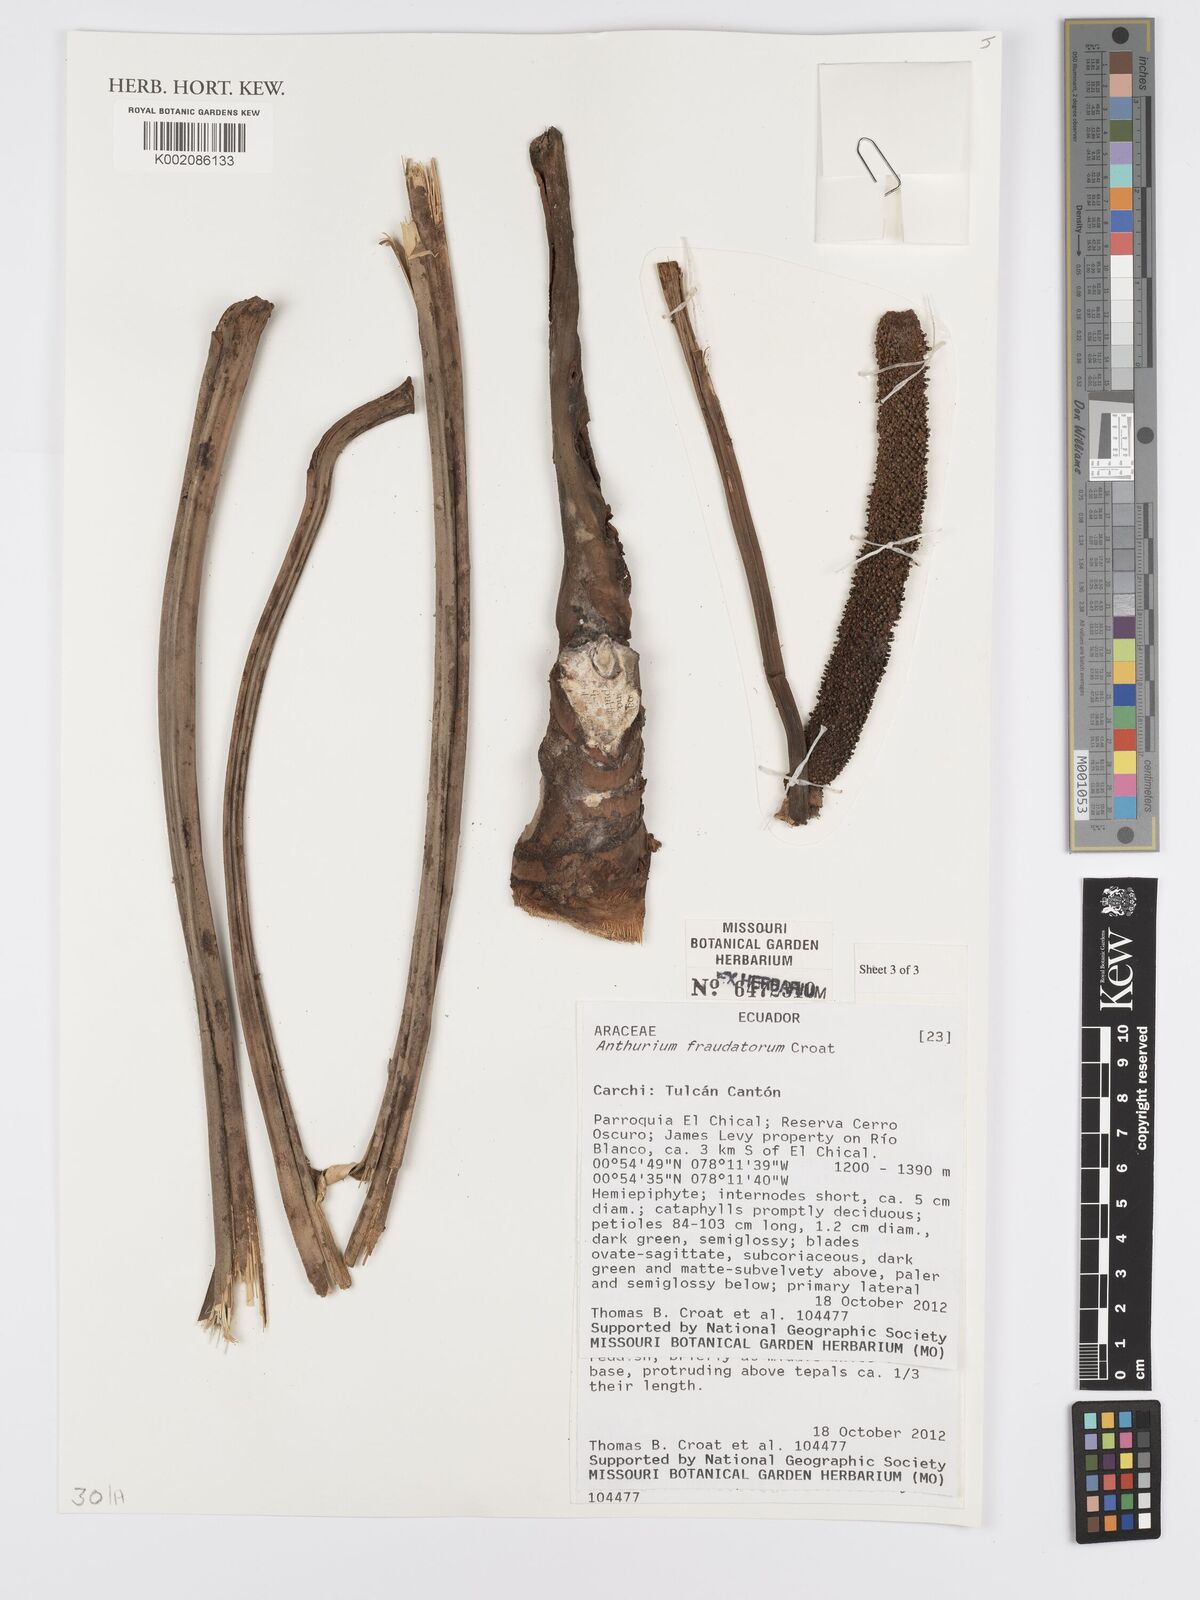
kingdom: Plantae
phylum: Tracheophyta
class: Liliopsida
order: Alismatales
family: Araceae
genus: Anthurium
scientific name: Anthurium
